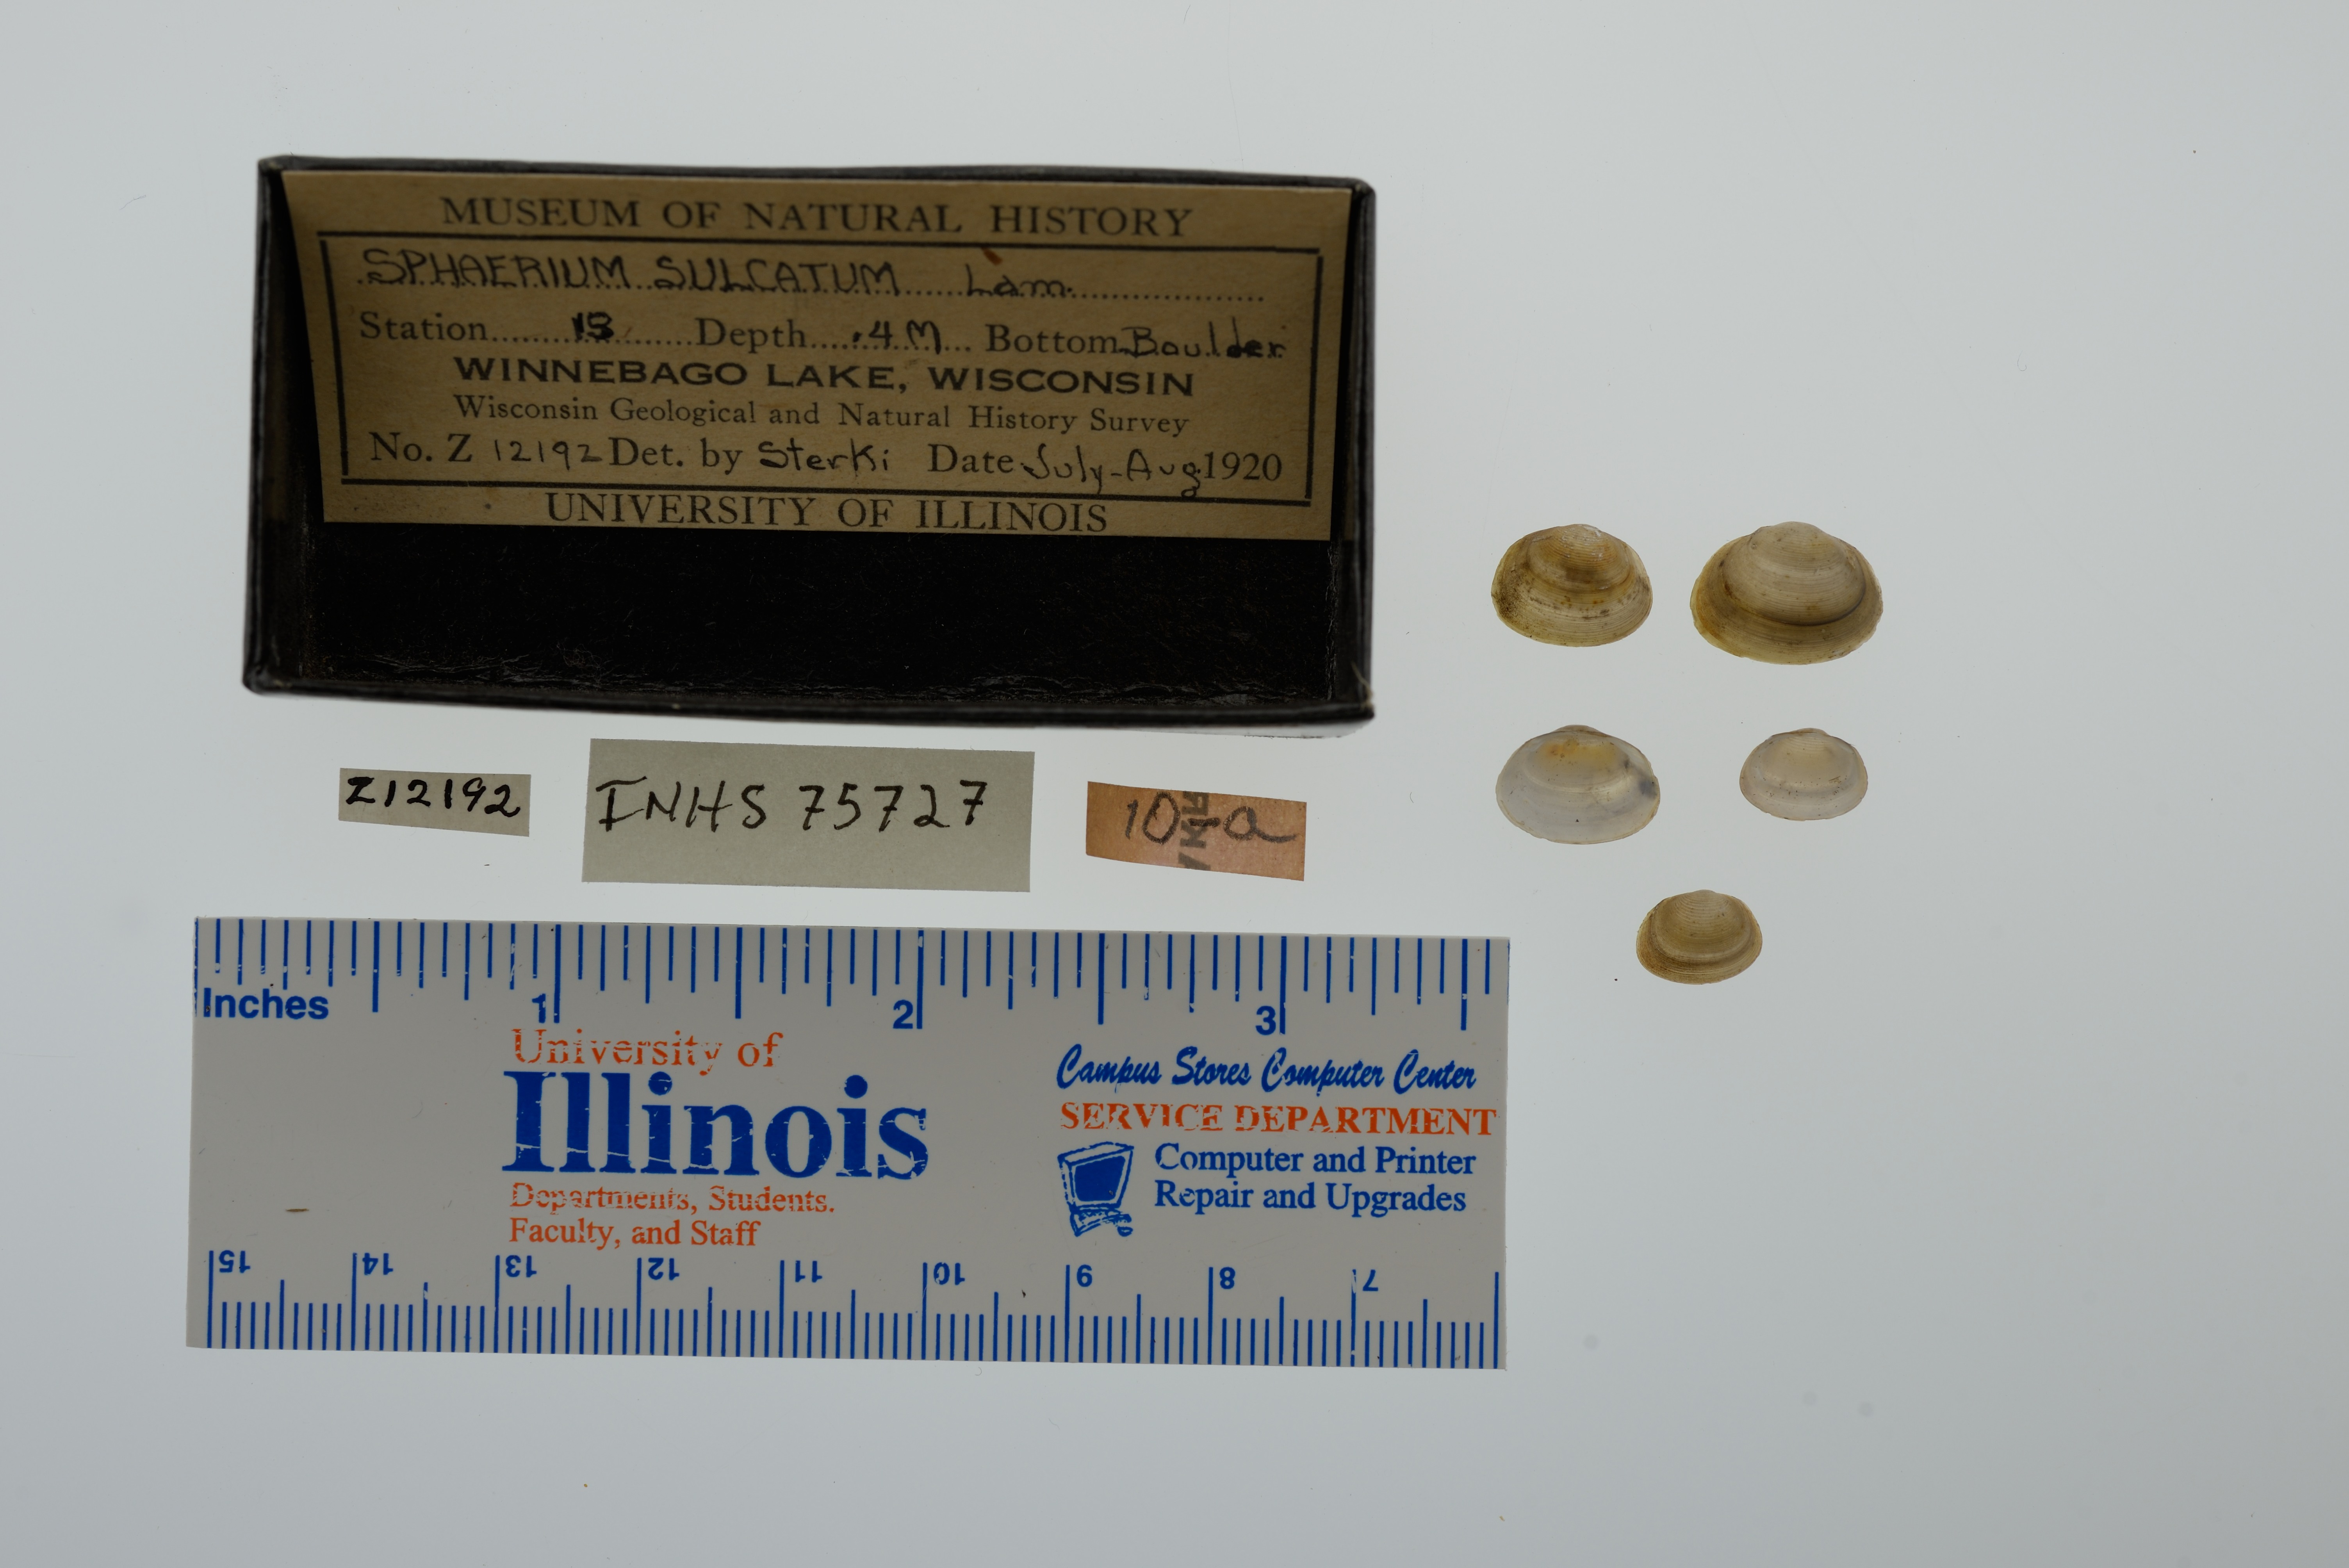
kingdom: Animalia
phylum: Mollusca
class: Bivalvia
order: Sphaeriida
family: Sphaeriidae
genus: Sphaerium
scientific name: Sphaerium simile
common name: Grooved fingernailclam
